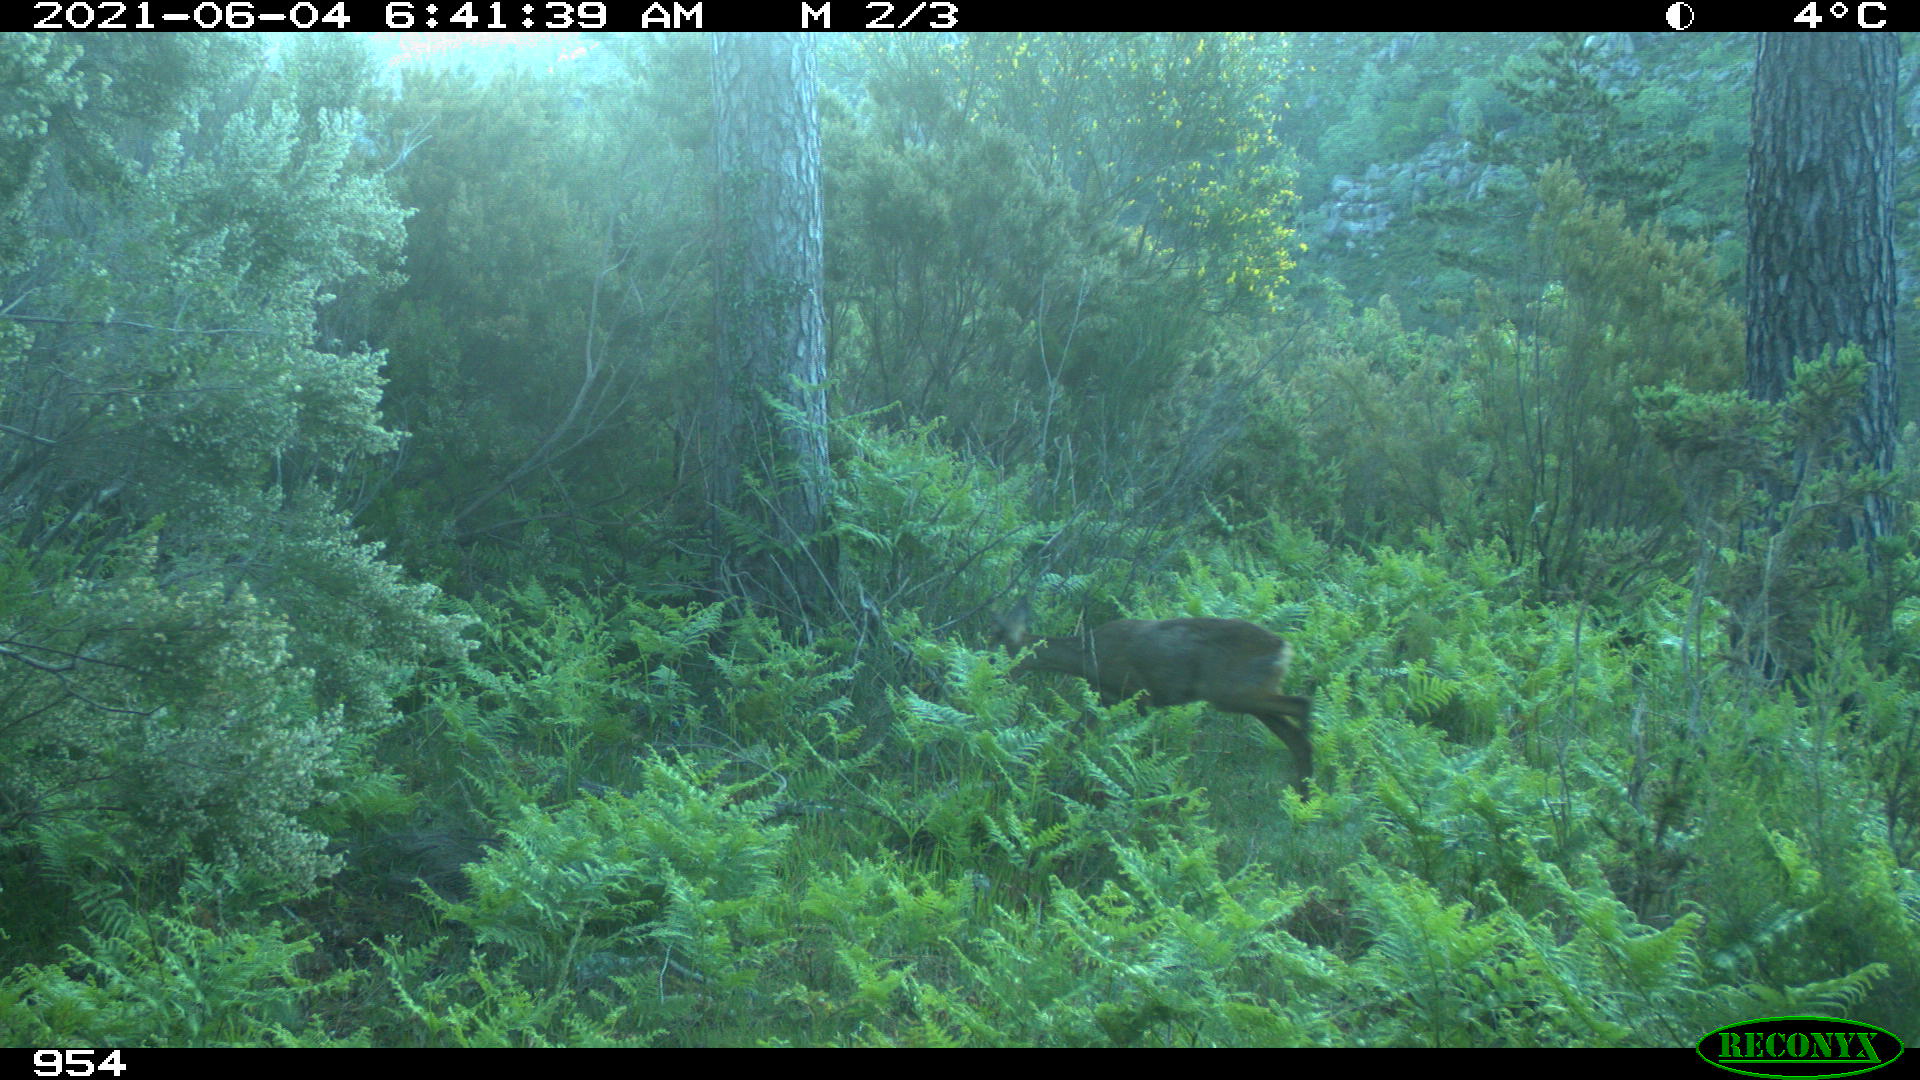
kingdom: Animalia
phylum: Chordata
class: Mammalia
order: Artiodactyla
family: Cervidae
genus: Capreolus
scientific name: Capreolus capreolus
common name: Western roe deer
